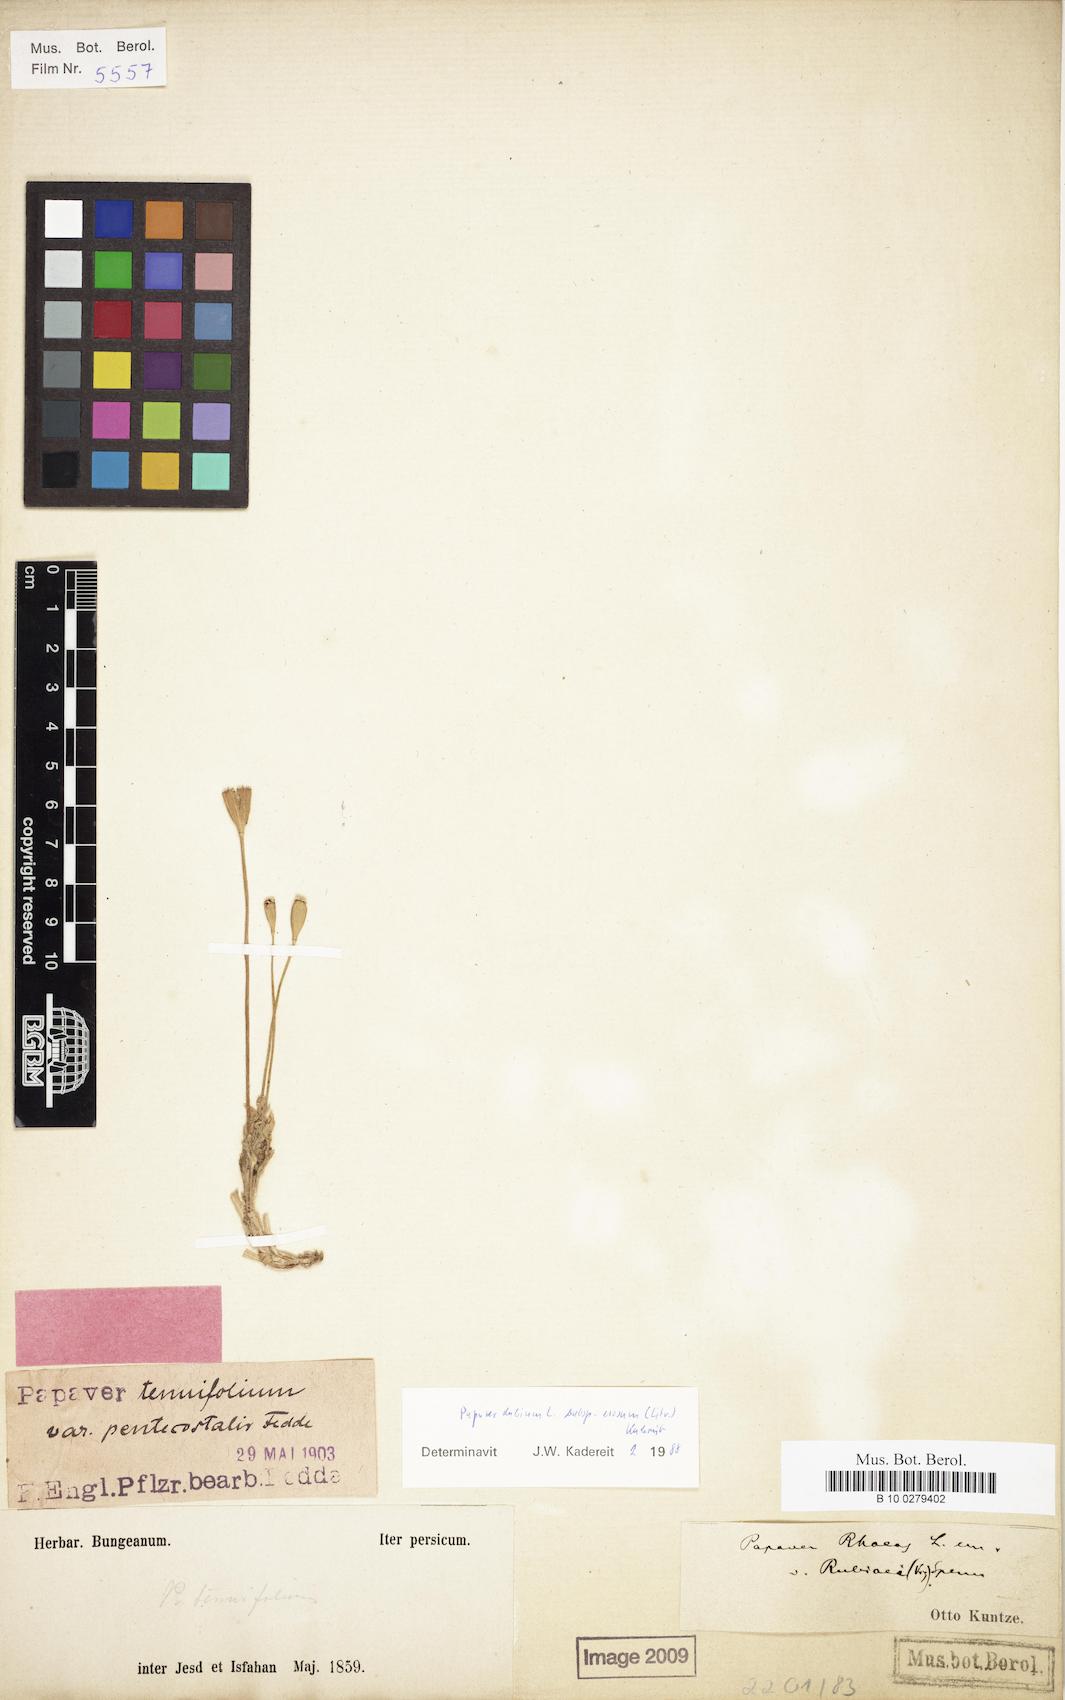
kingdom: Plantae
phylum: Tracheophyta
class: Magnoliopsida
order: Ranunculales
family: Papaveraceae
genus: Papaver
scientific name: Papaver laevigatum
